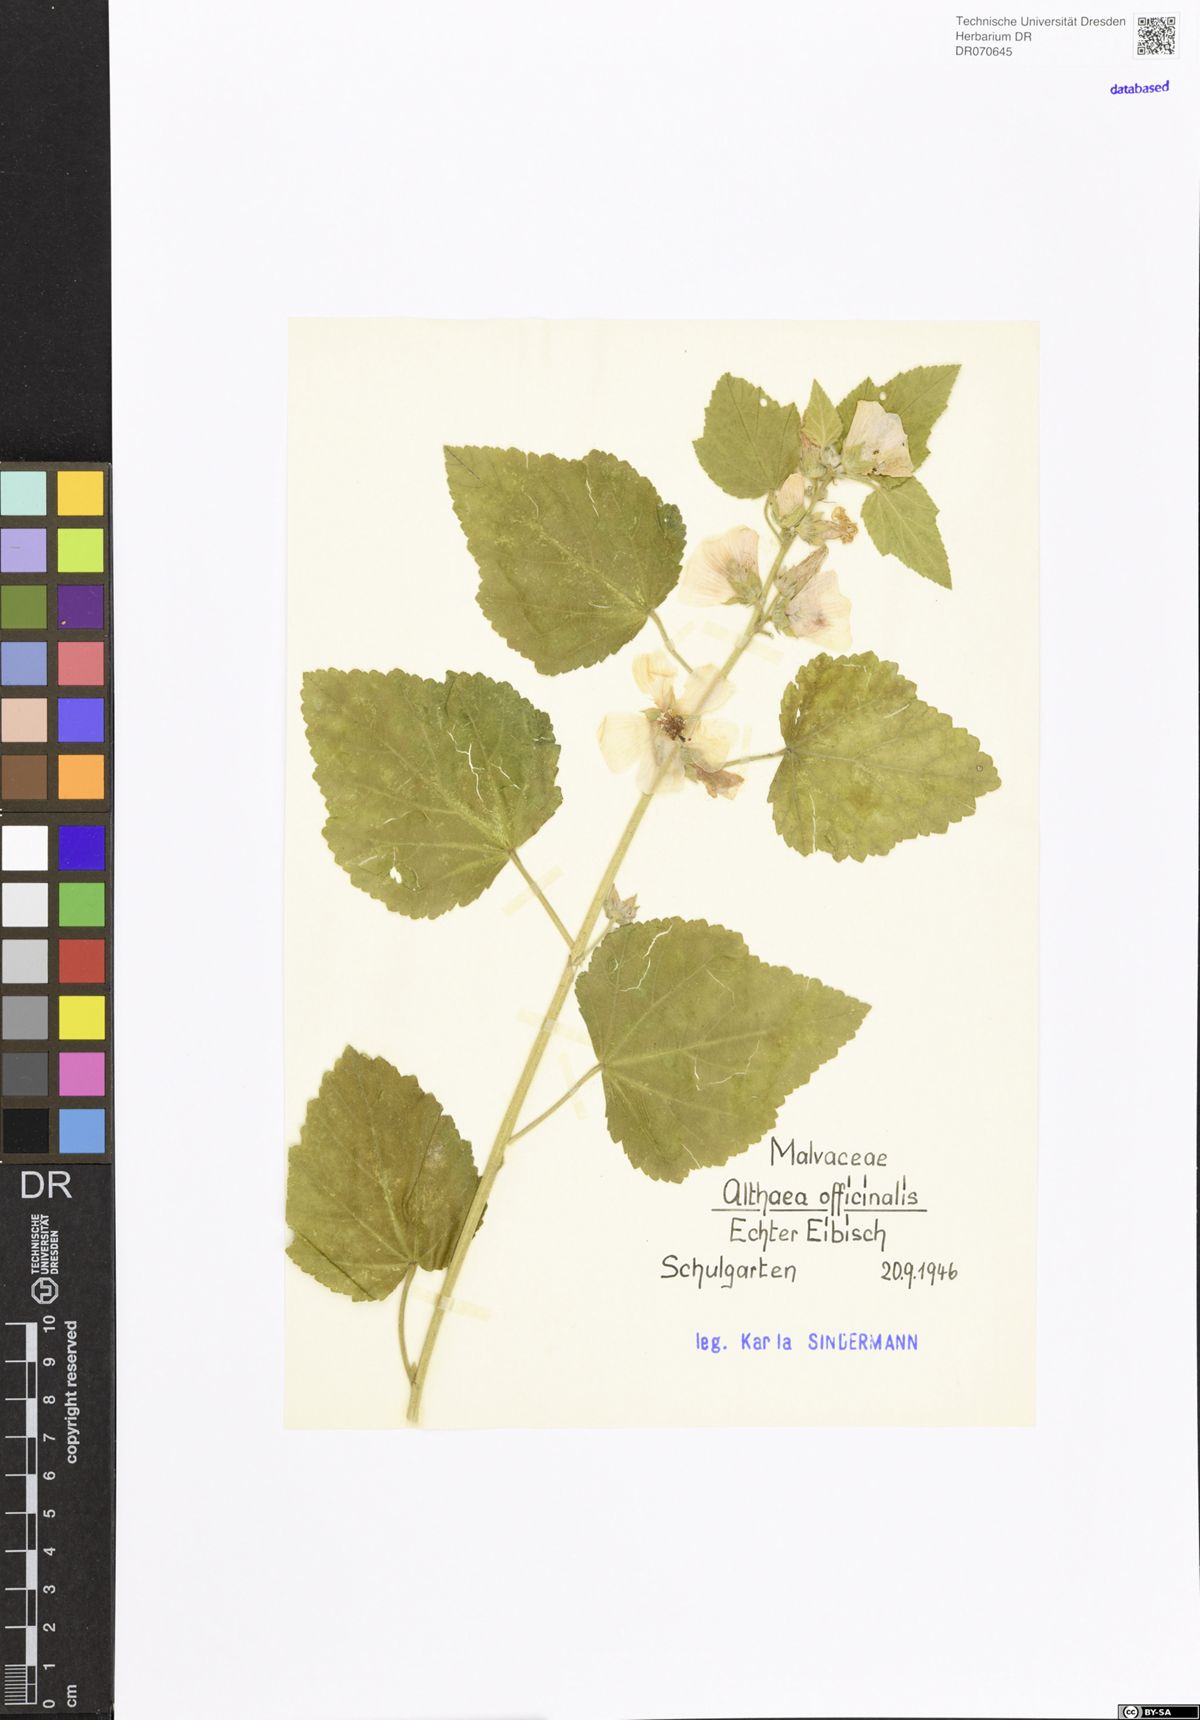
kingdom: Plantae
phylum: Tracheophyta
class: Magnoliopsida
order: Malvales
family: Malvaceae
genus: Althaea
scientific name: Althaea officinalis
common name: Marsh-mallow
